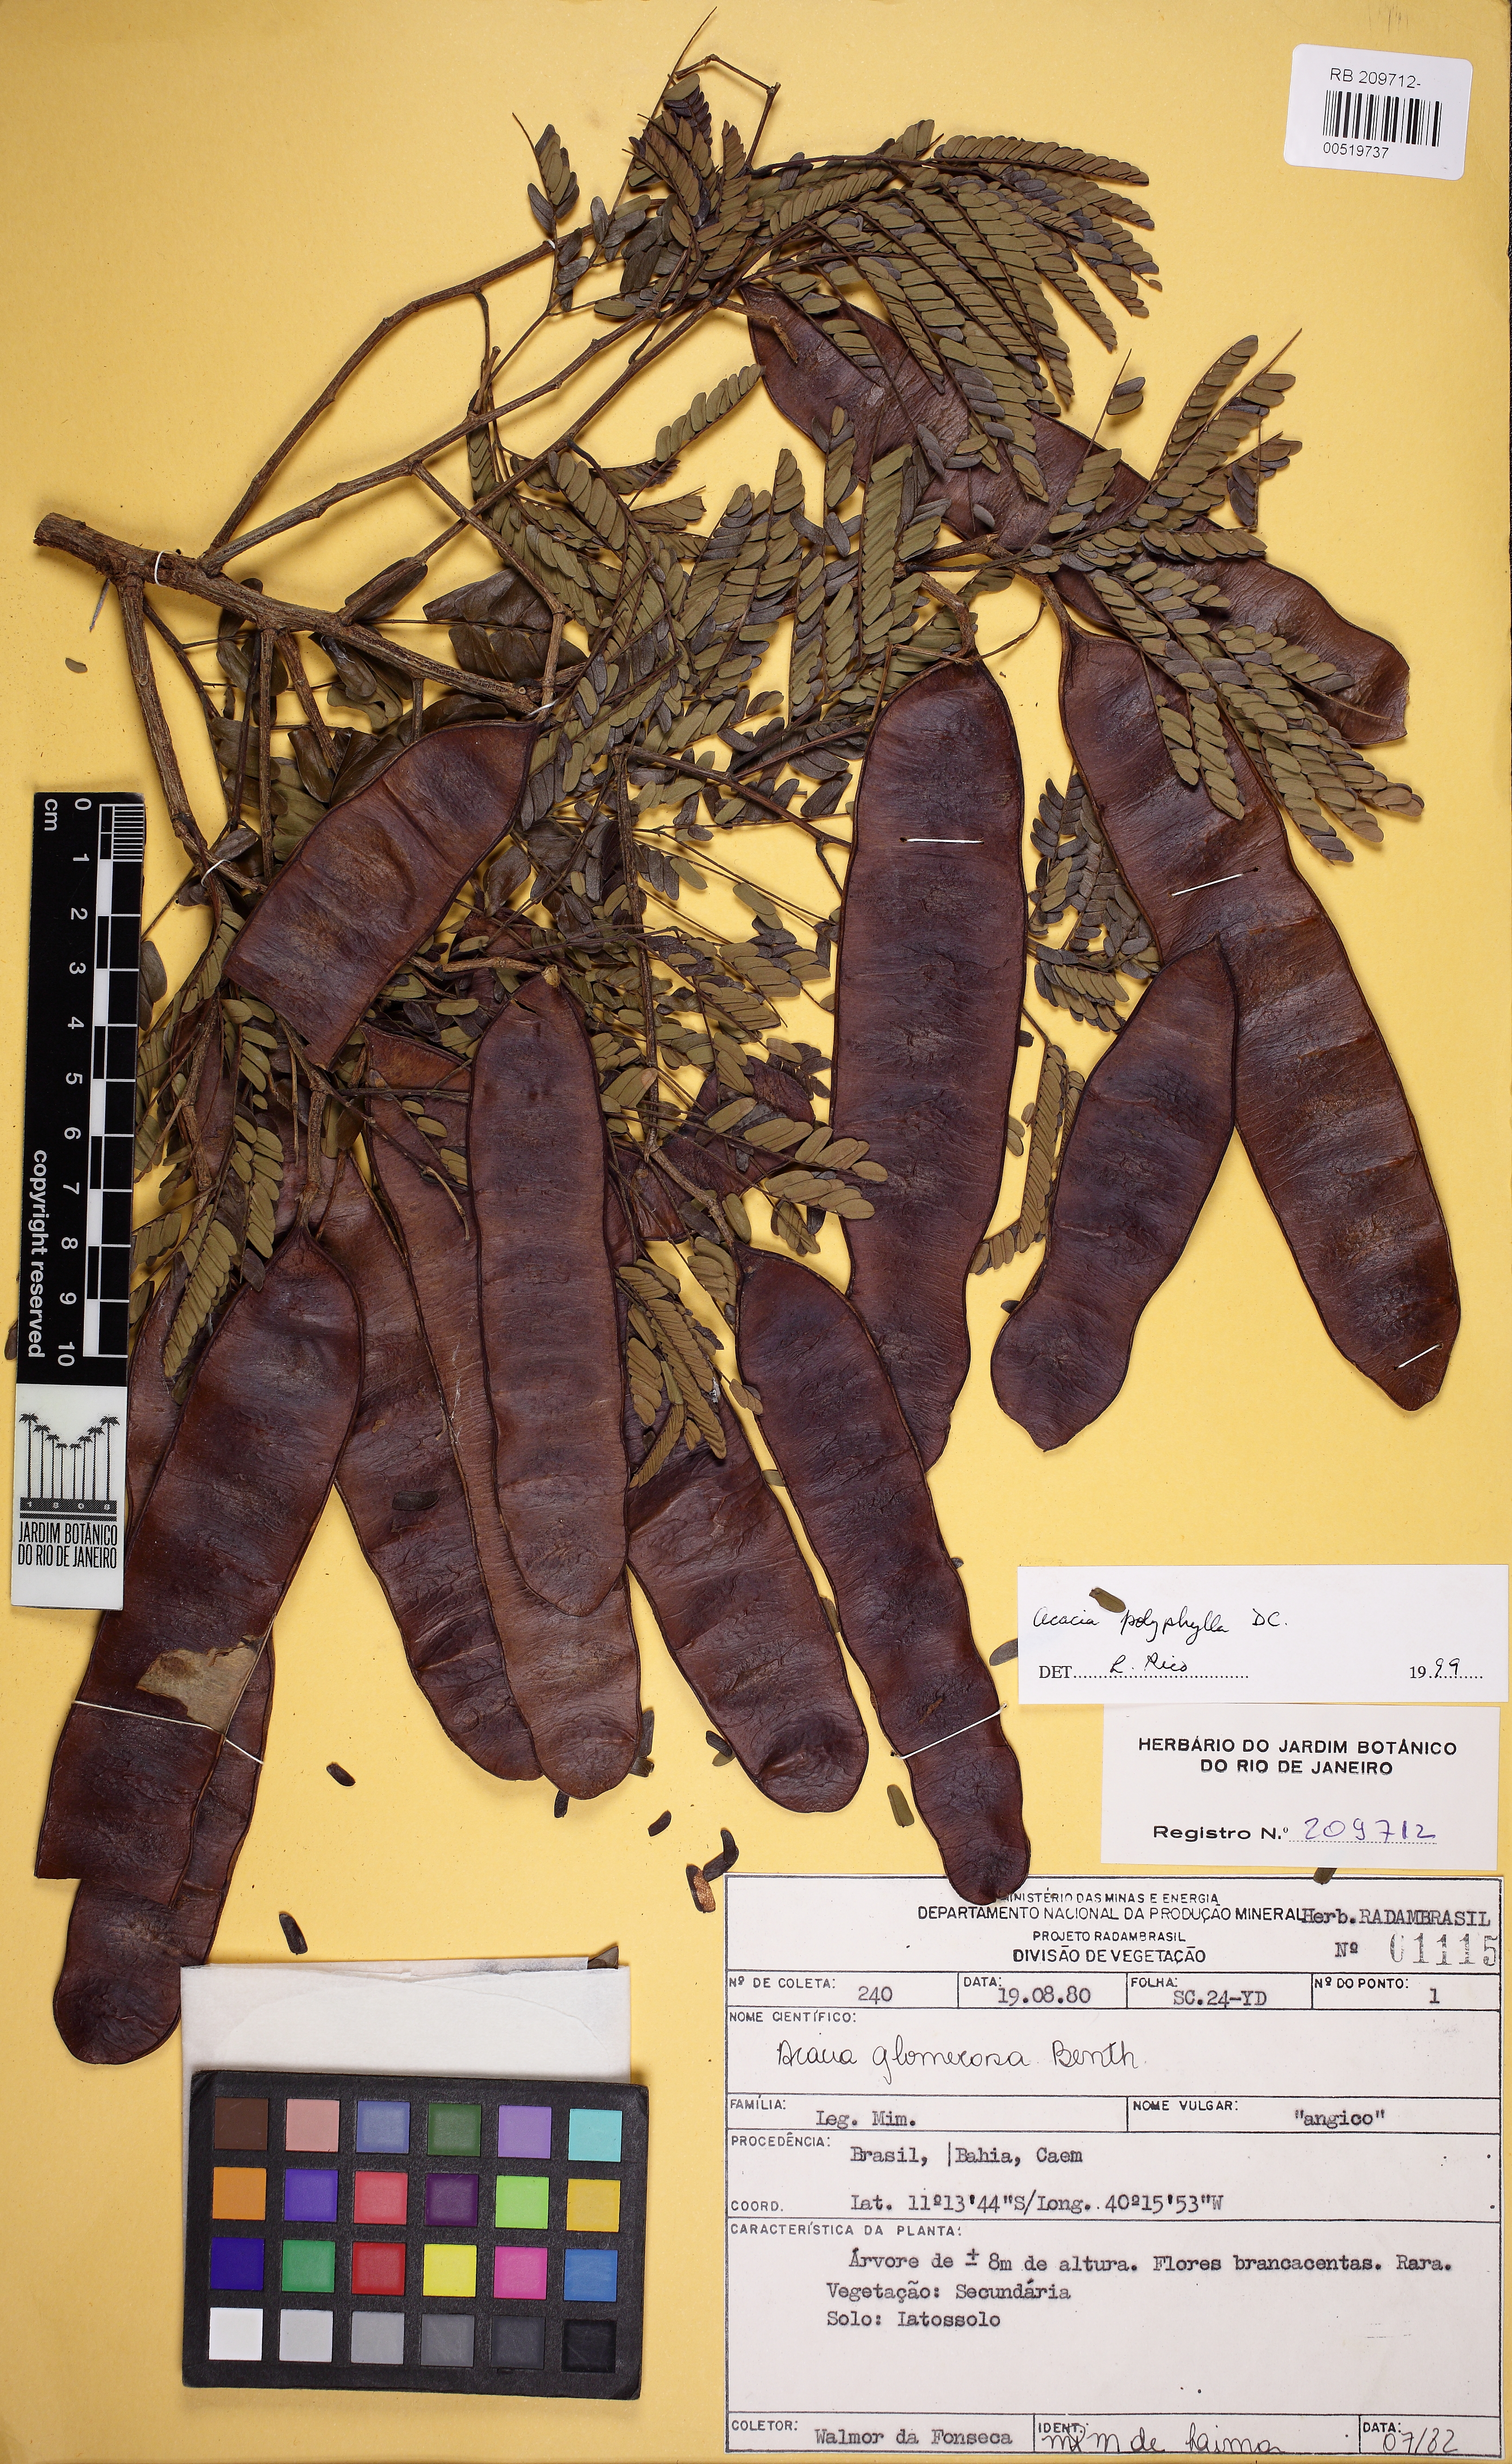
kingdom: Plantae
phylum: Tracheophyta
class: Magnoliopsida
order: Fabales
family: Fabaceae
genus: Senegalia
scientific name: Senegalia polyphylla
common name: White-tamarind
